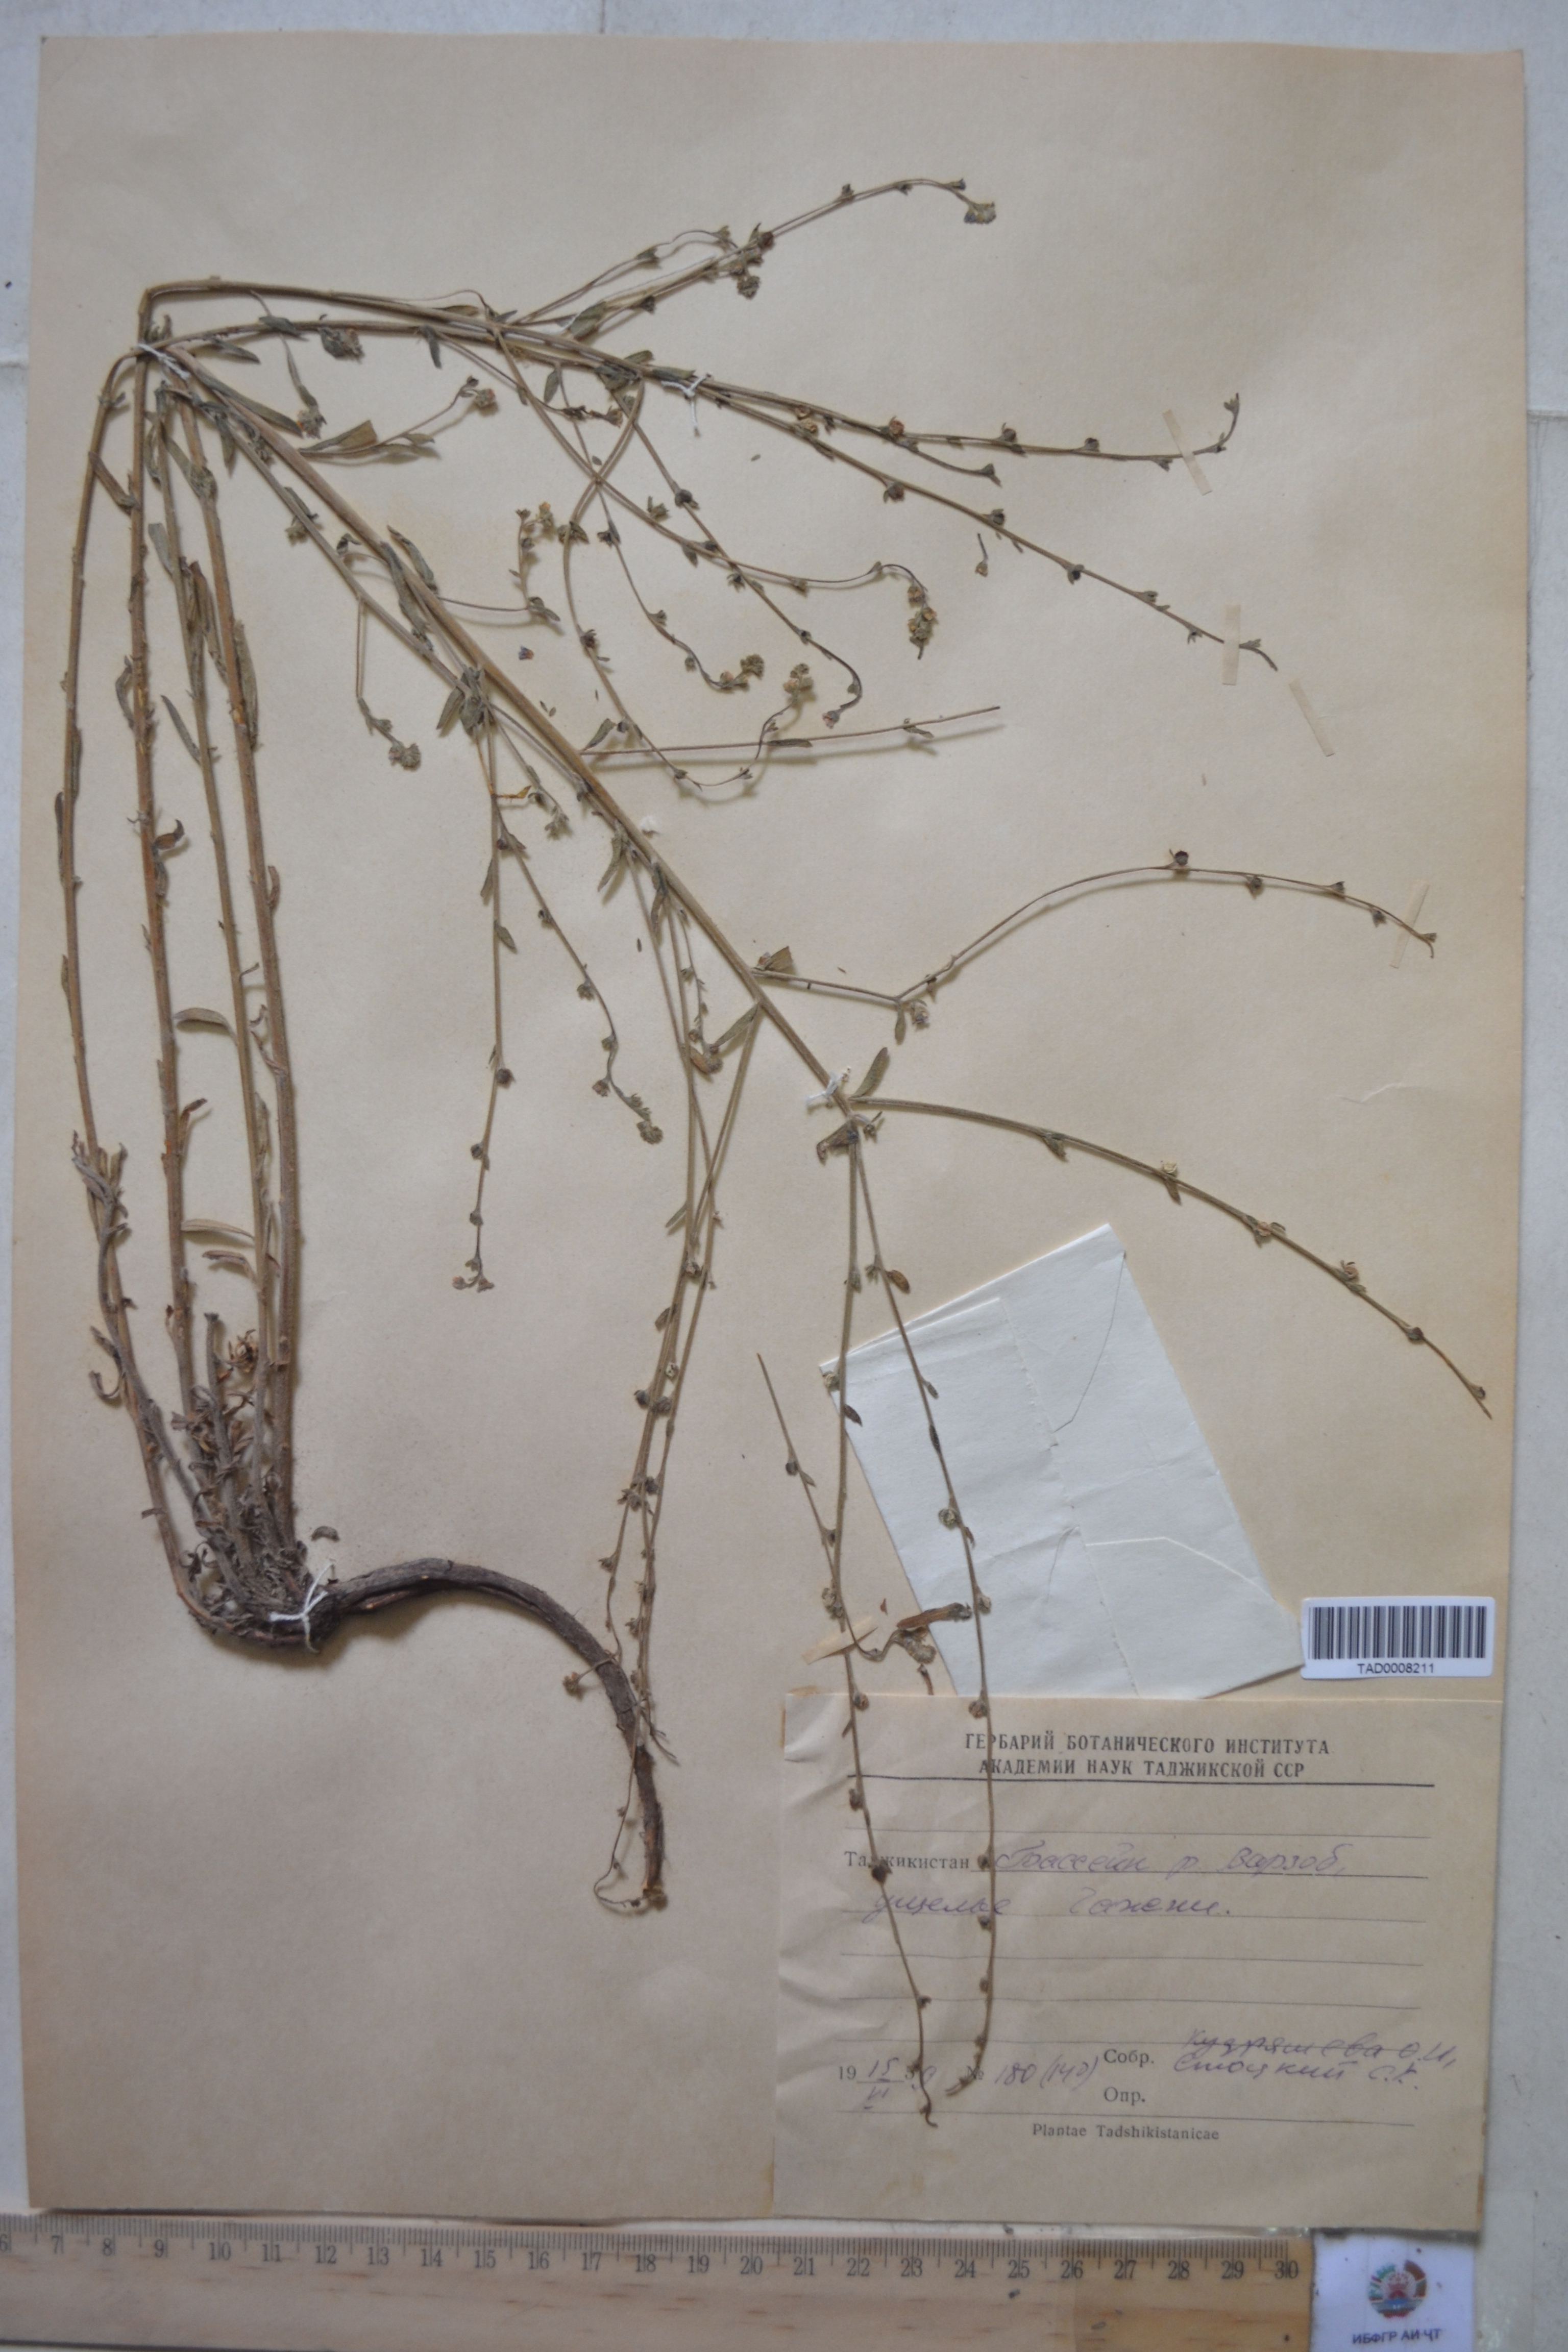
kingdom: Plantae
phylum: Tracheophyta
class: Magnoliopsida
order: Boraginales
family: Boraginaceae
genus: Lappula
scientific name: Lappula squarrosa
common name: European stickseed
